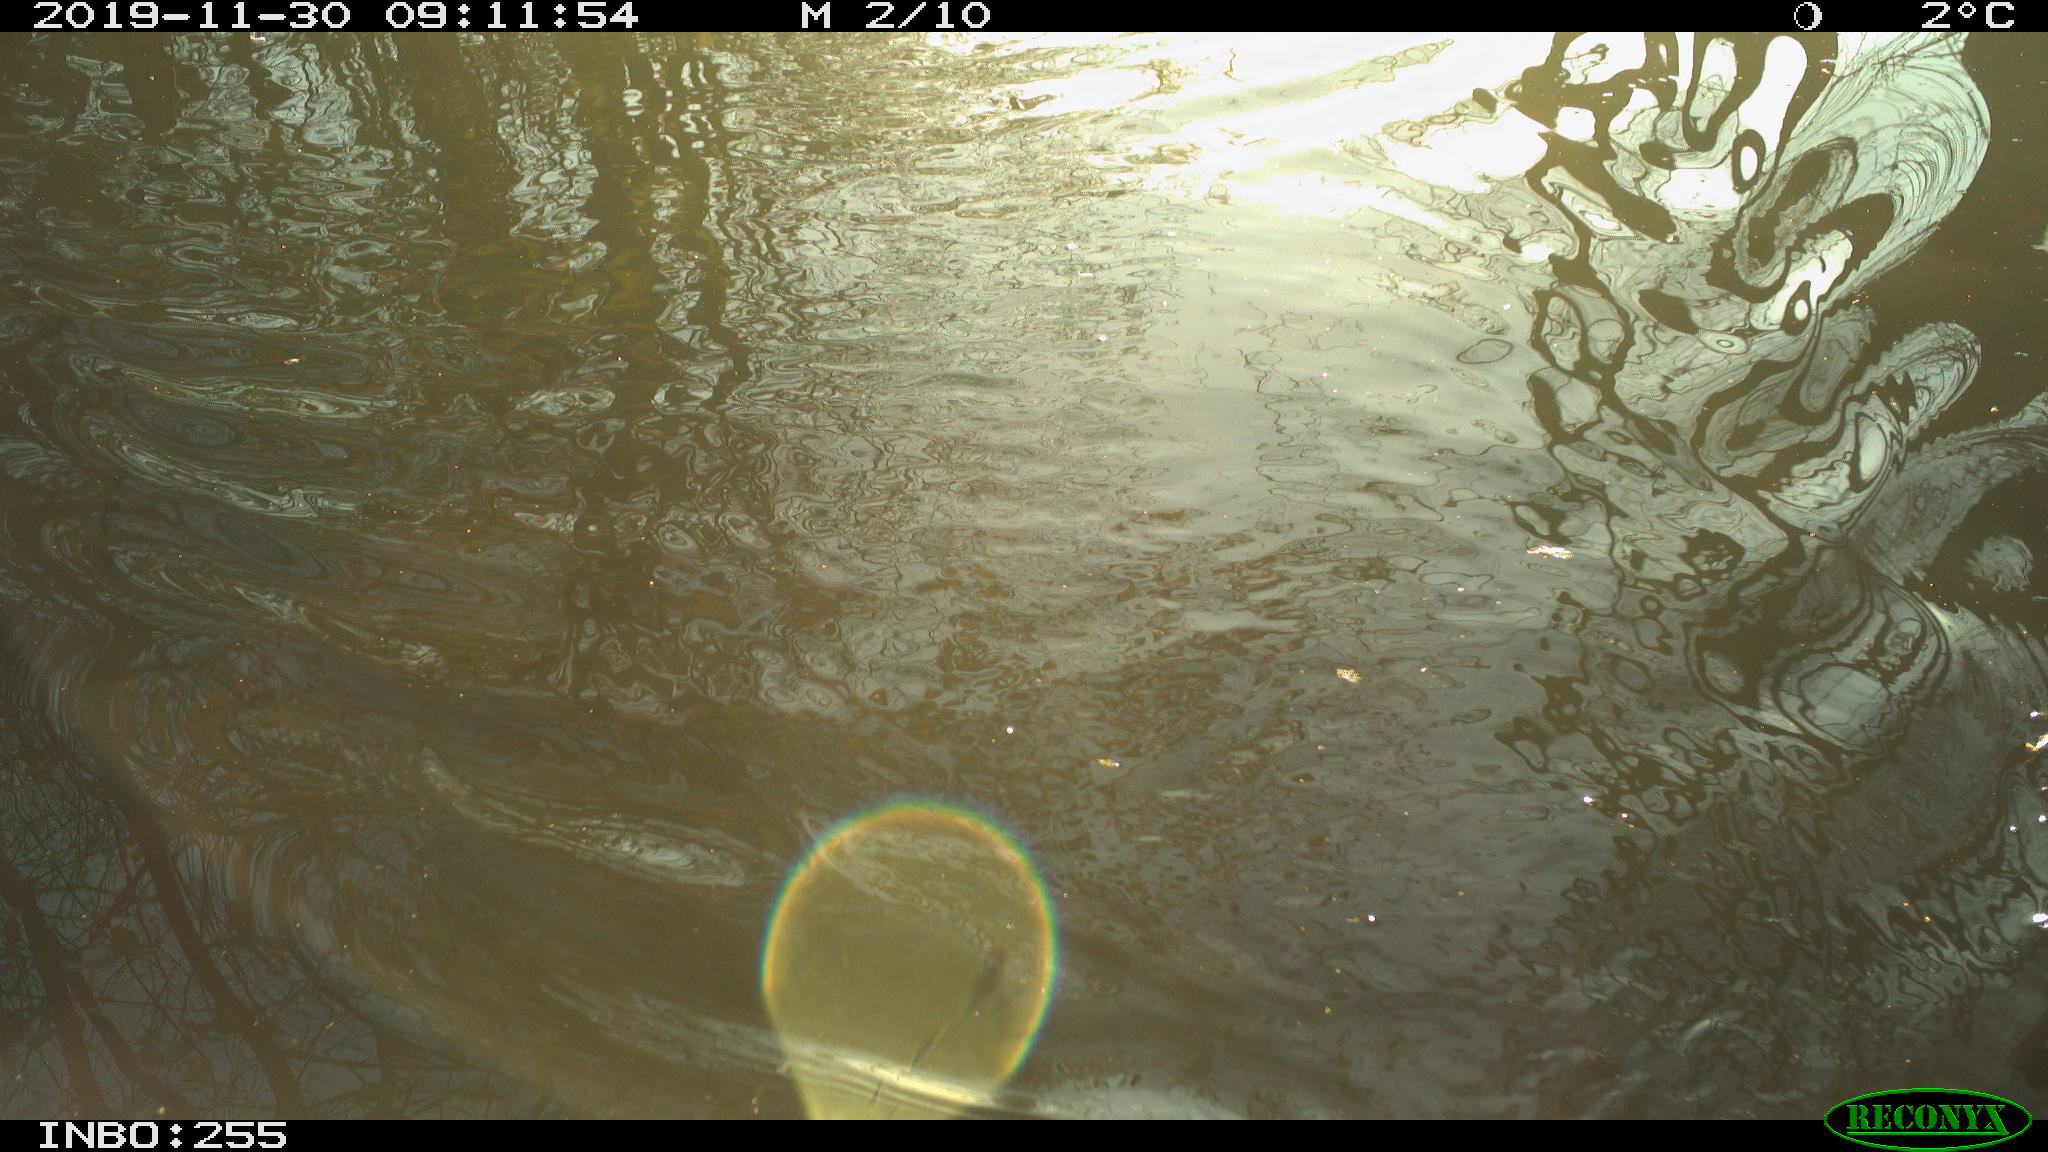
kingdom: Animalia
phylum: Chordata
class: Aves
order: Gruiformes
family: Rallidae
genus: Gallinula
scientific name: Gallinula chloropus
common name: Common moorhen
